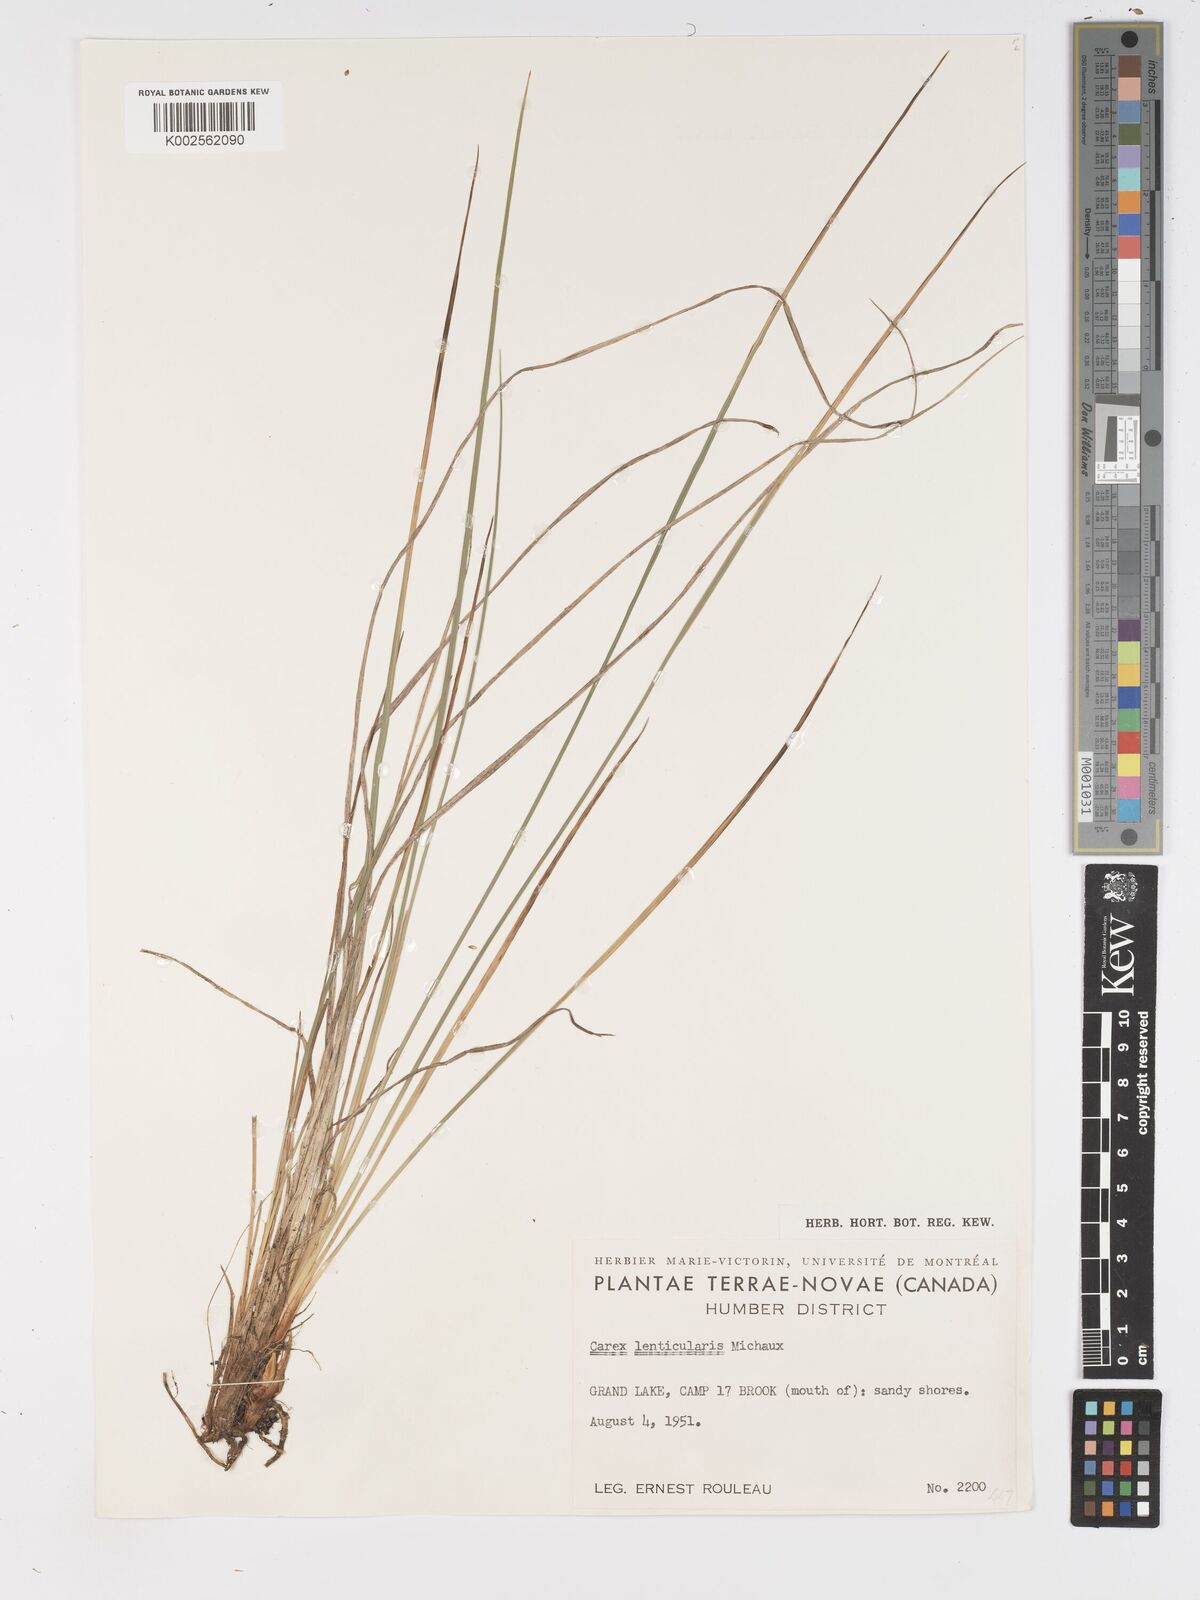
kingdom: Plantae
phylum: Tracheophyta
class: Liliopsida
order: Poales
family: Cyperaceae
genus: Carex
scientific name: Carex lenticularis
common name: Lakeshore sedge
